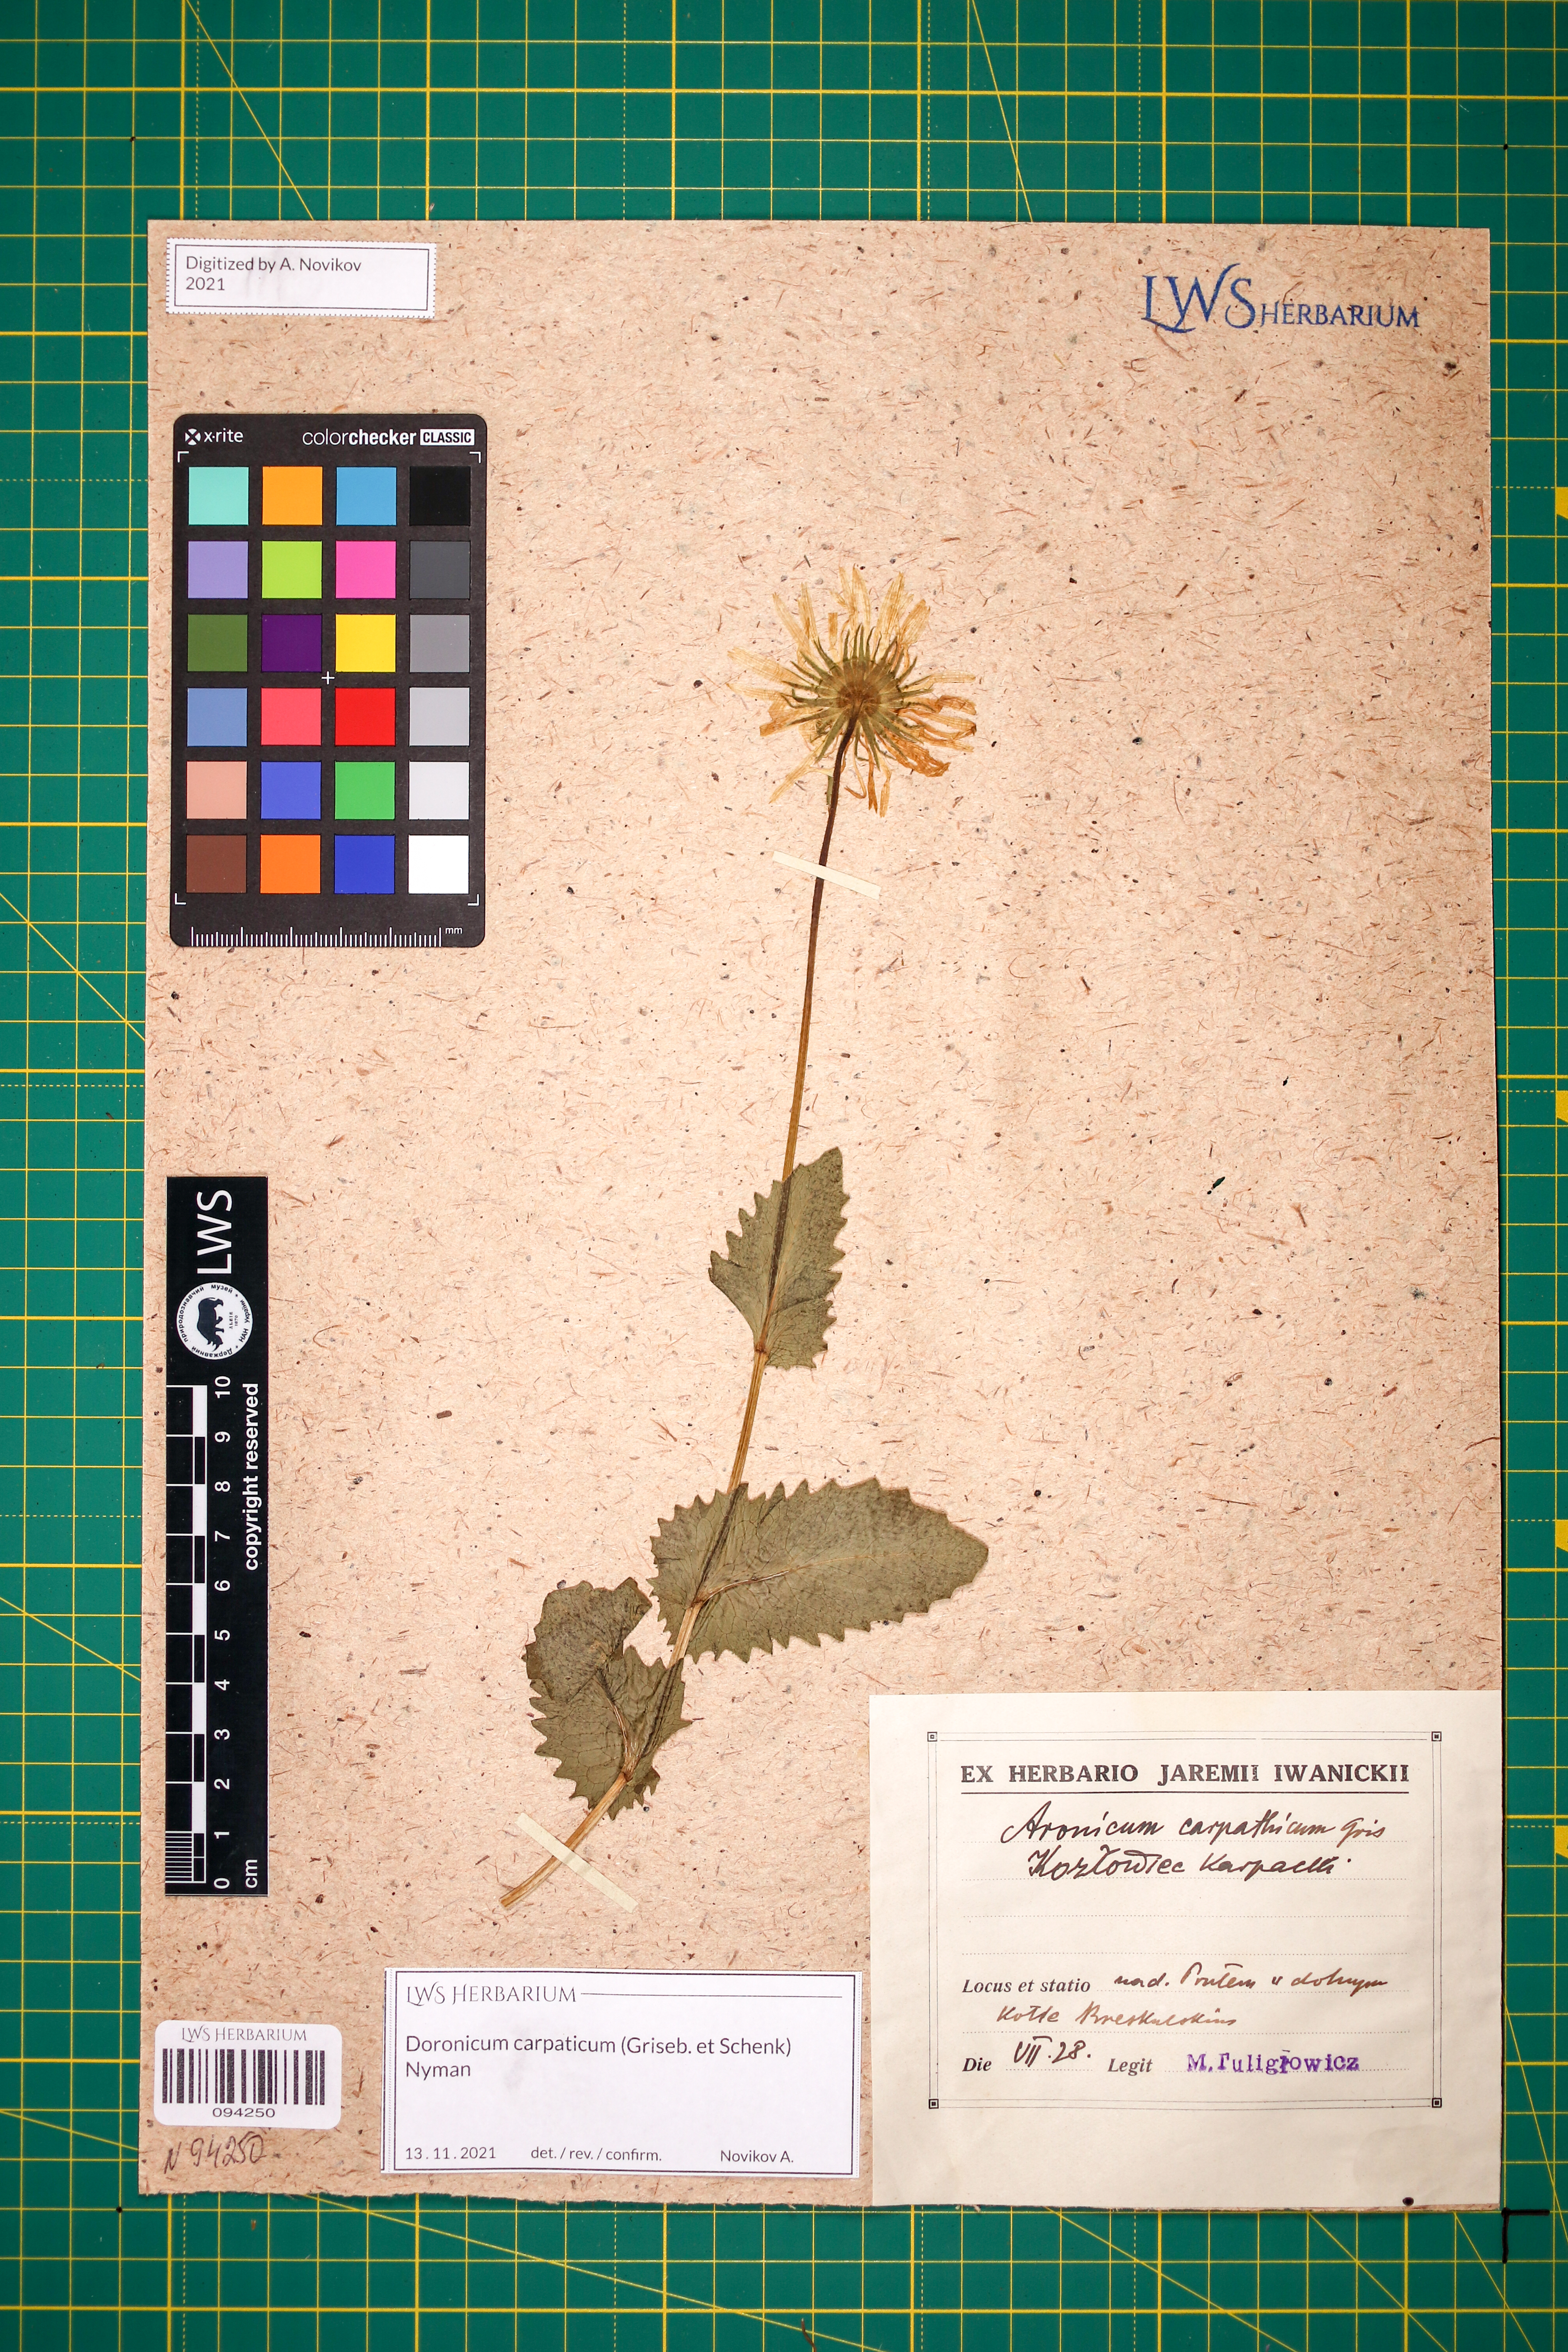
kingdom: Plantae
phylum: Tracheophyta
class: Magnoliopsida
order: Asterales
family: Asteraceae
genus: Doronicum
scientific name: Doronicum carpaticum
